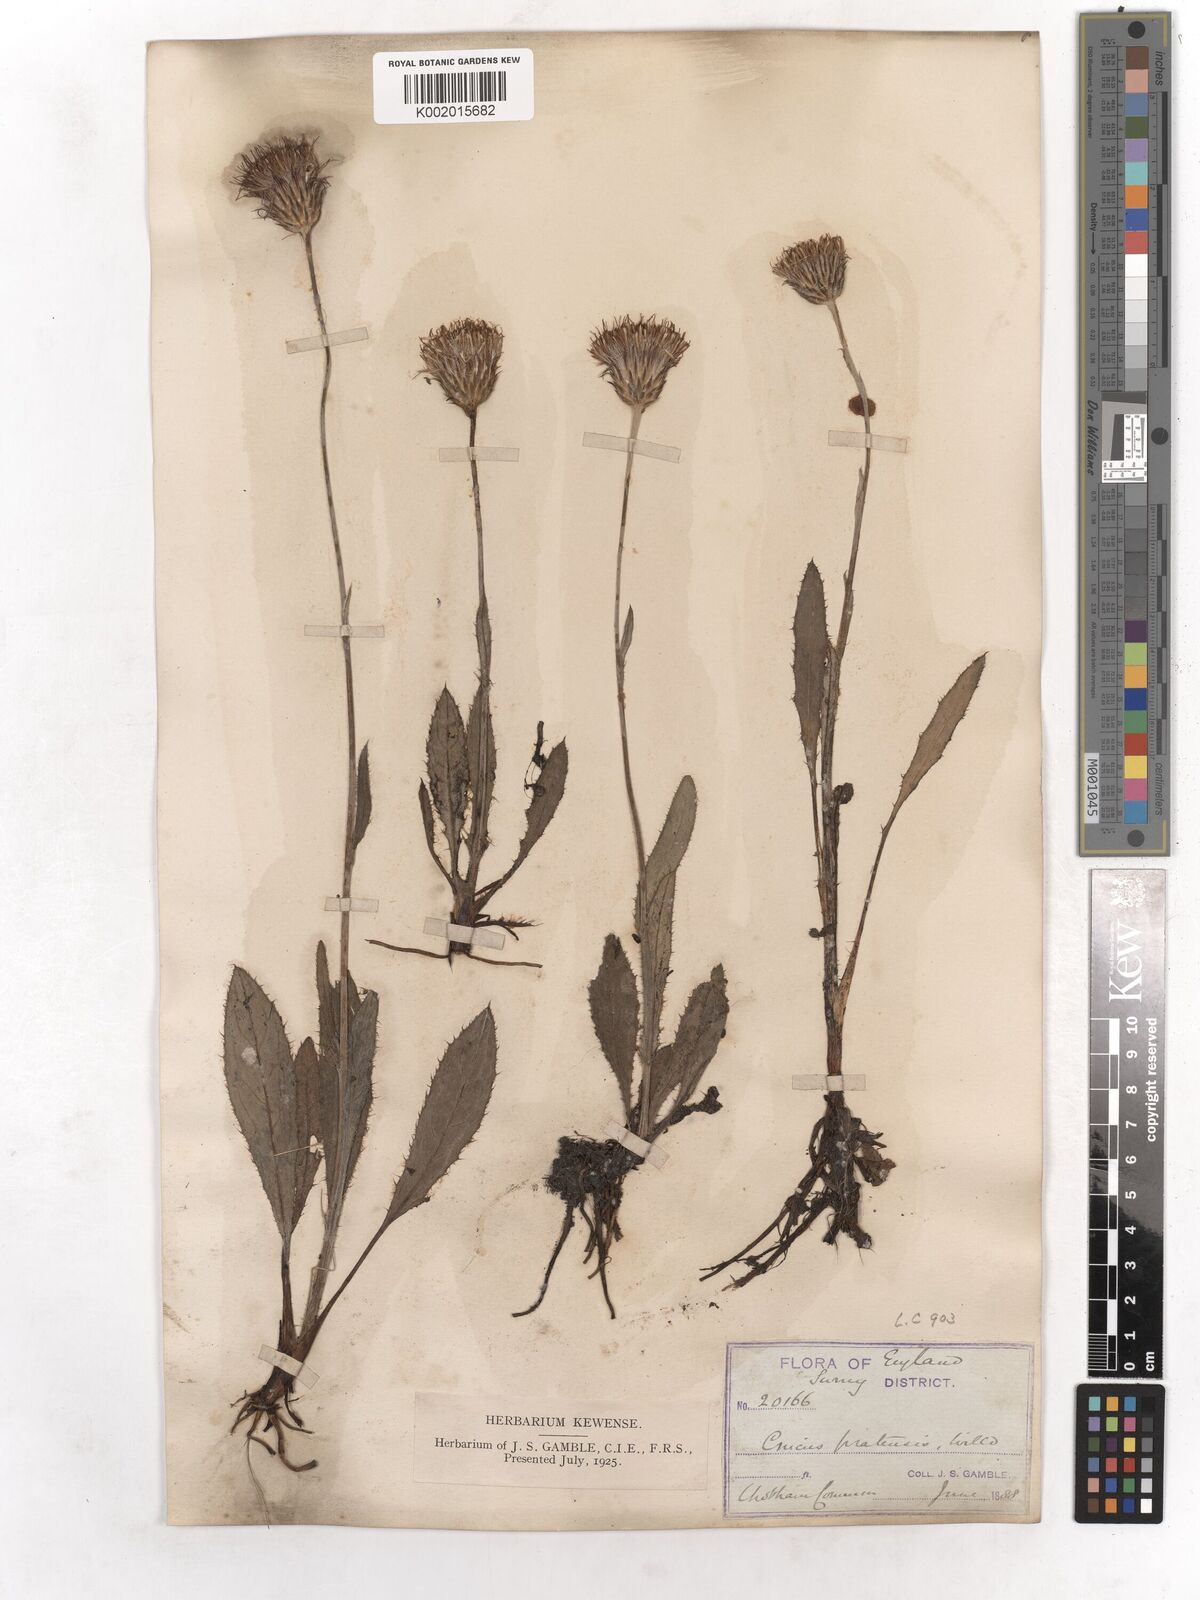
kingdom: Plantae
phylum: Tracheophyta
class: Magnoliopsida
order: Asterales
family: Asteraceae
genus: Cirsium
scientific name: Cirsium dissectum
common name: Meadow thistle
